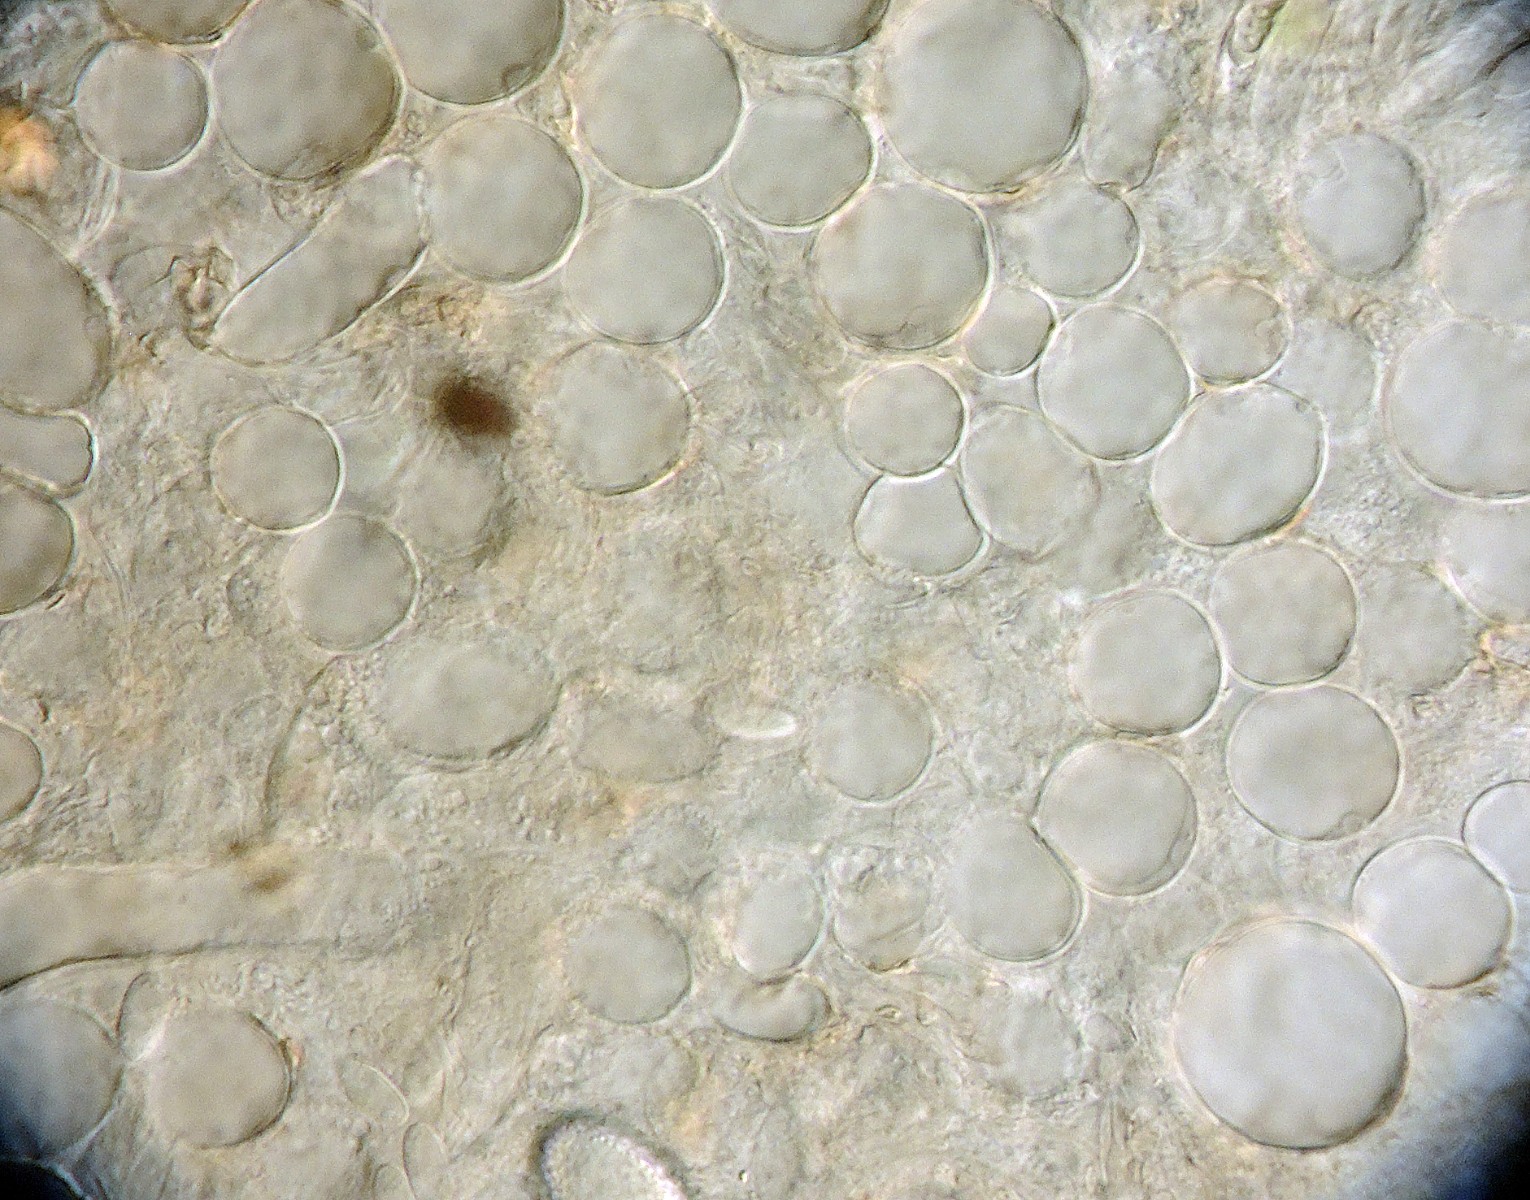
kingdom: Fungi
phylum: Ascomycota
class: Leotiomycetes
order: Helotiales
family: Sclerotiniaceae
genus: Moellerodiscus
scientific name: Moellerodiscus capillipes
